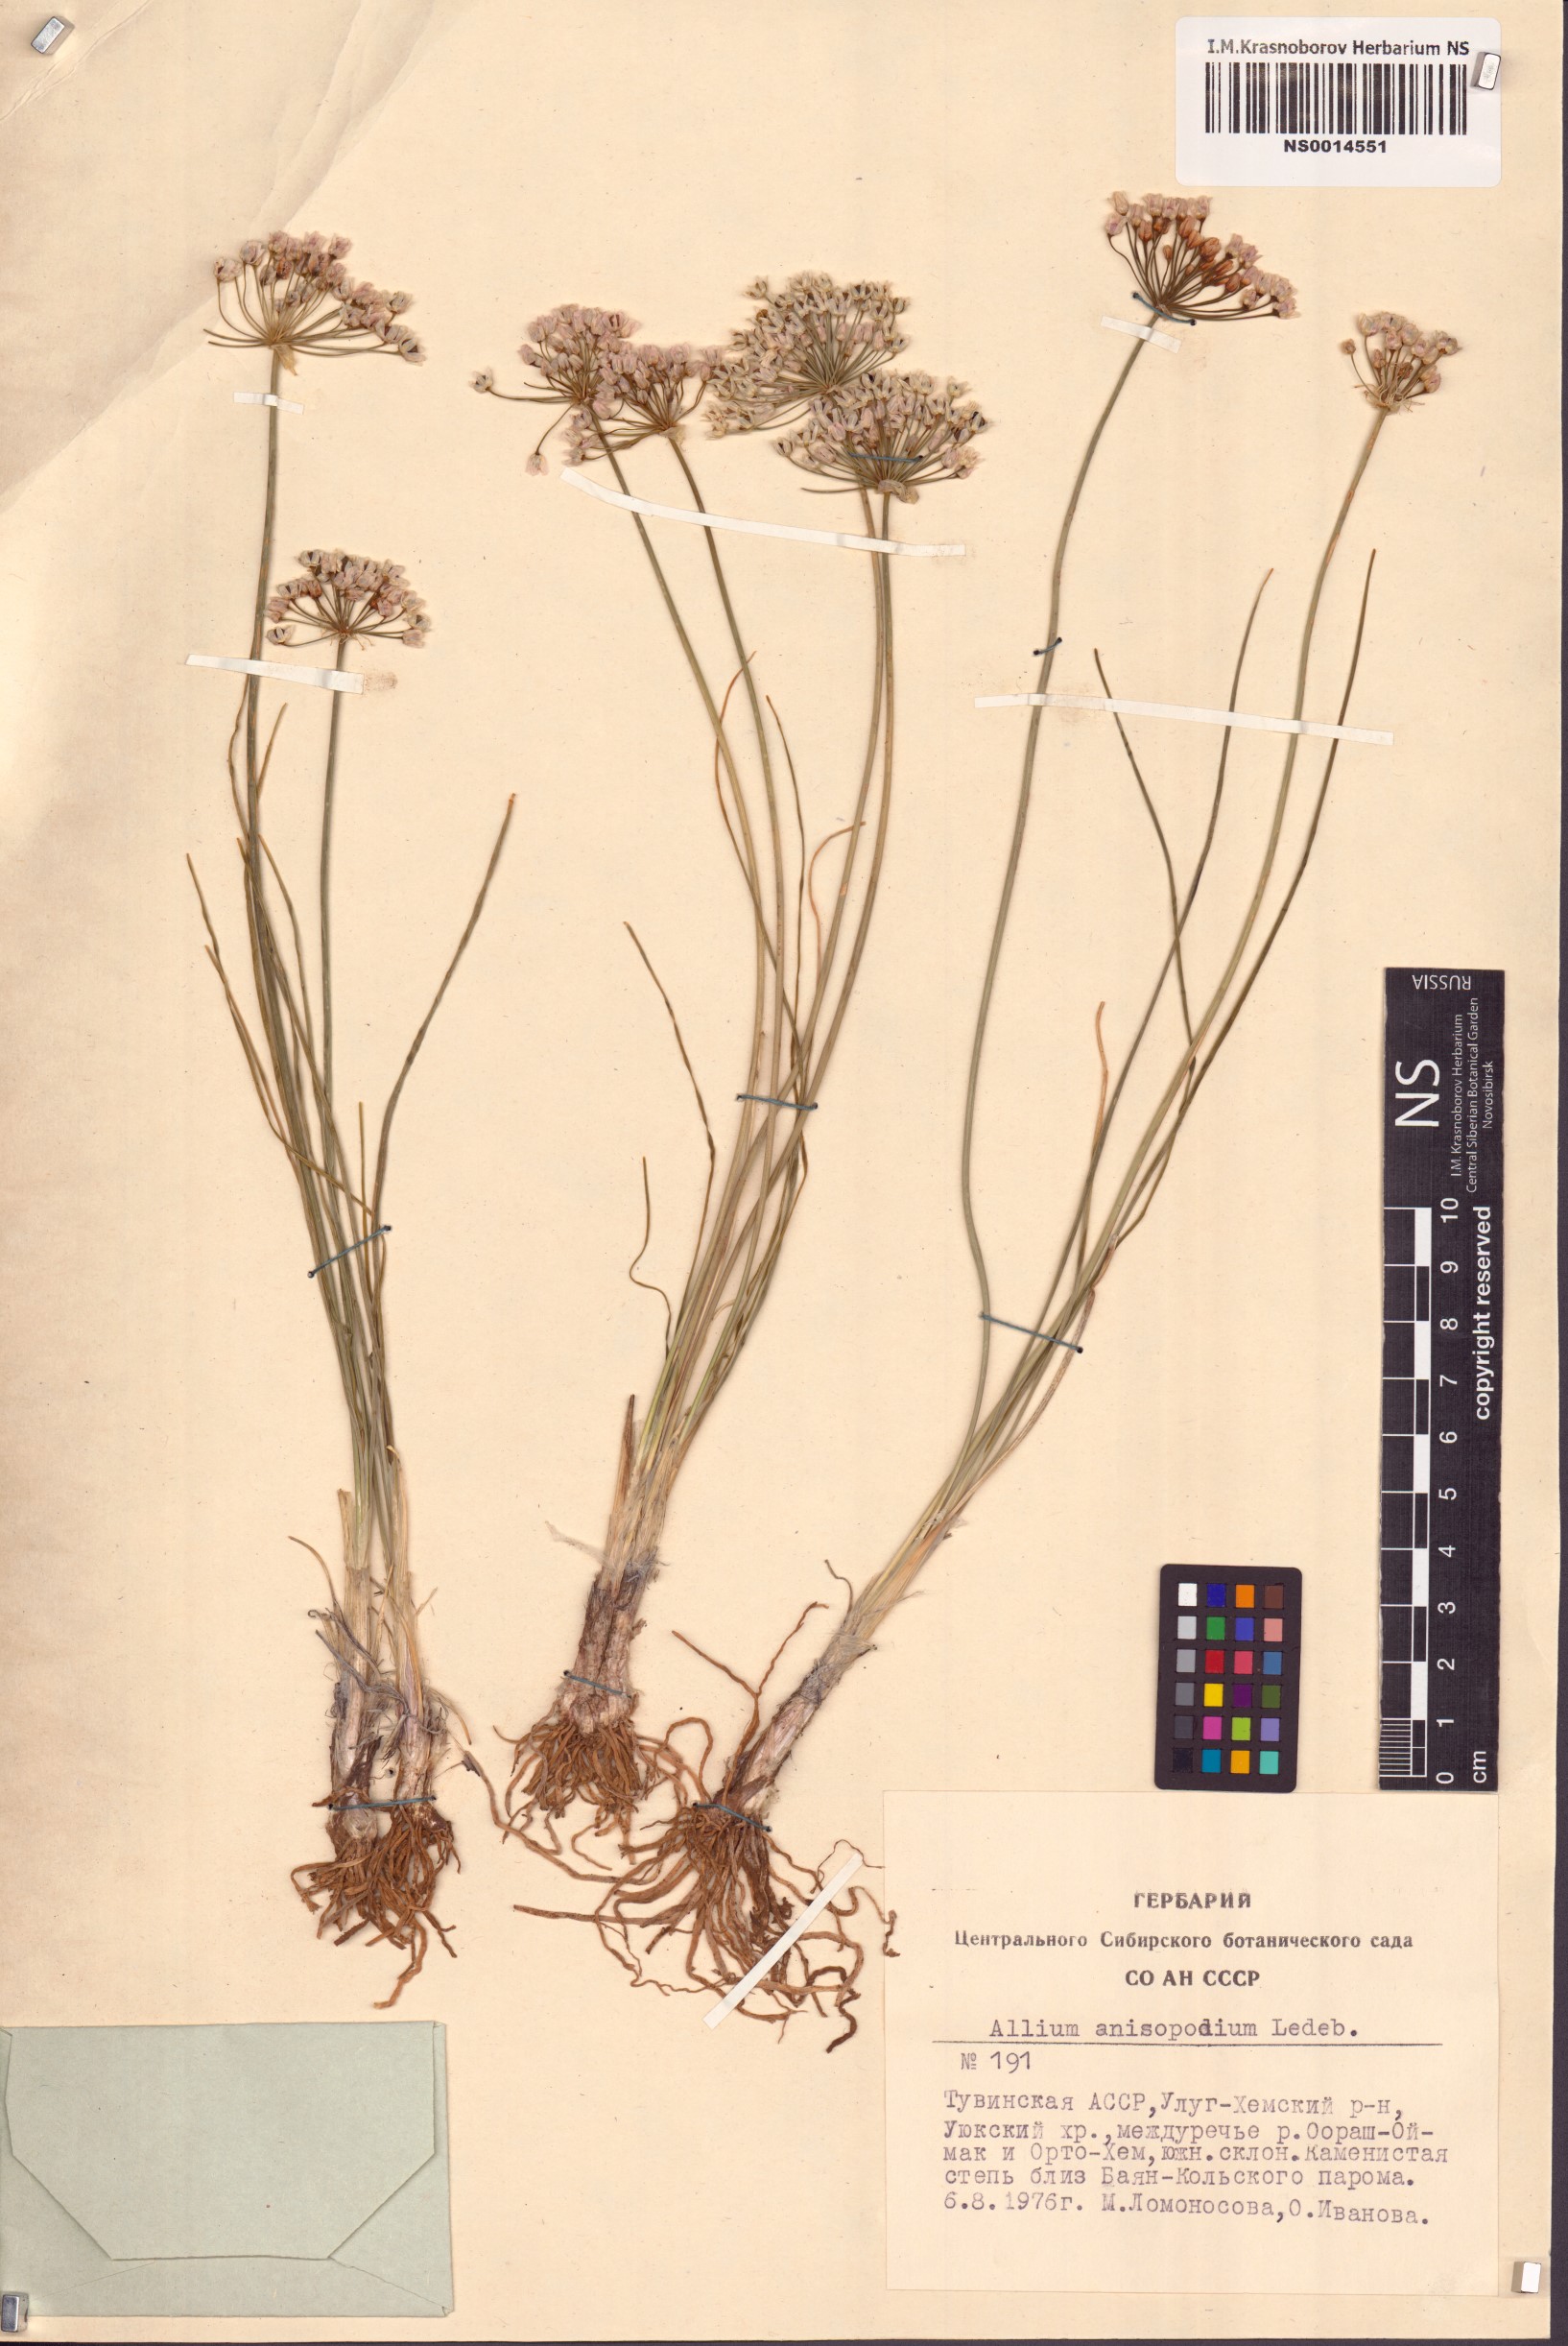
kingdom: Plantae
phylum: Tracheophyta
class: Liliopsida
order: Asparagales
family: Amaryllidaceae
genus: Allium
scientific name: Allium anisopodium
